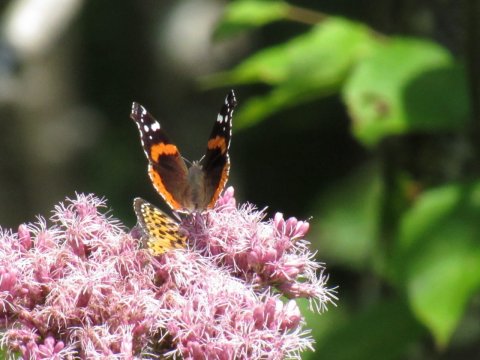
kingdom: Animalia
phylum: Arthropoda
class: Insecta
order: Lepidoptera
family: Nymphalidae
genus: Vanessa
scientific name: Vanessa atalanta
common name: Red Admiral
